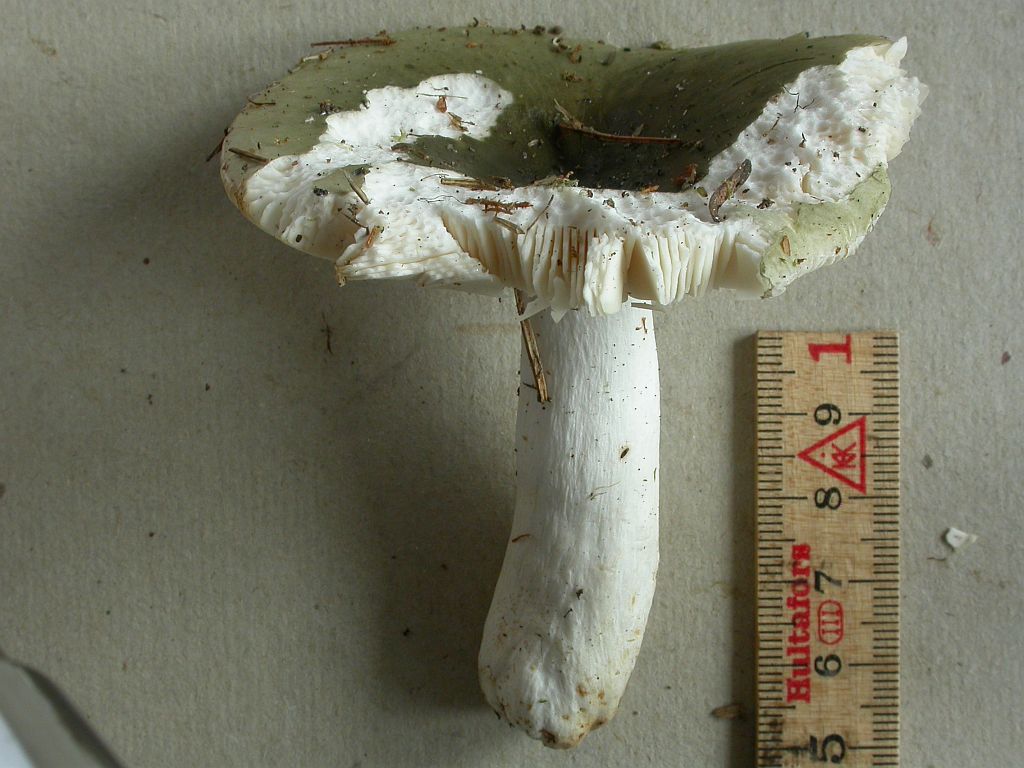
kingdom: Fungi
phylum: Basidiomycota
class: Agaricomycetes
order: Russulales
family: Russulaceae
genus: Russula
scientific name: Russula aeruginea
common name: græsgrøn skørhat
